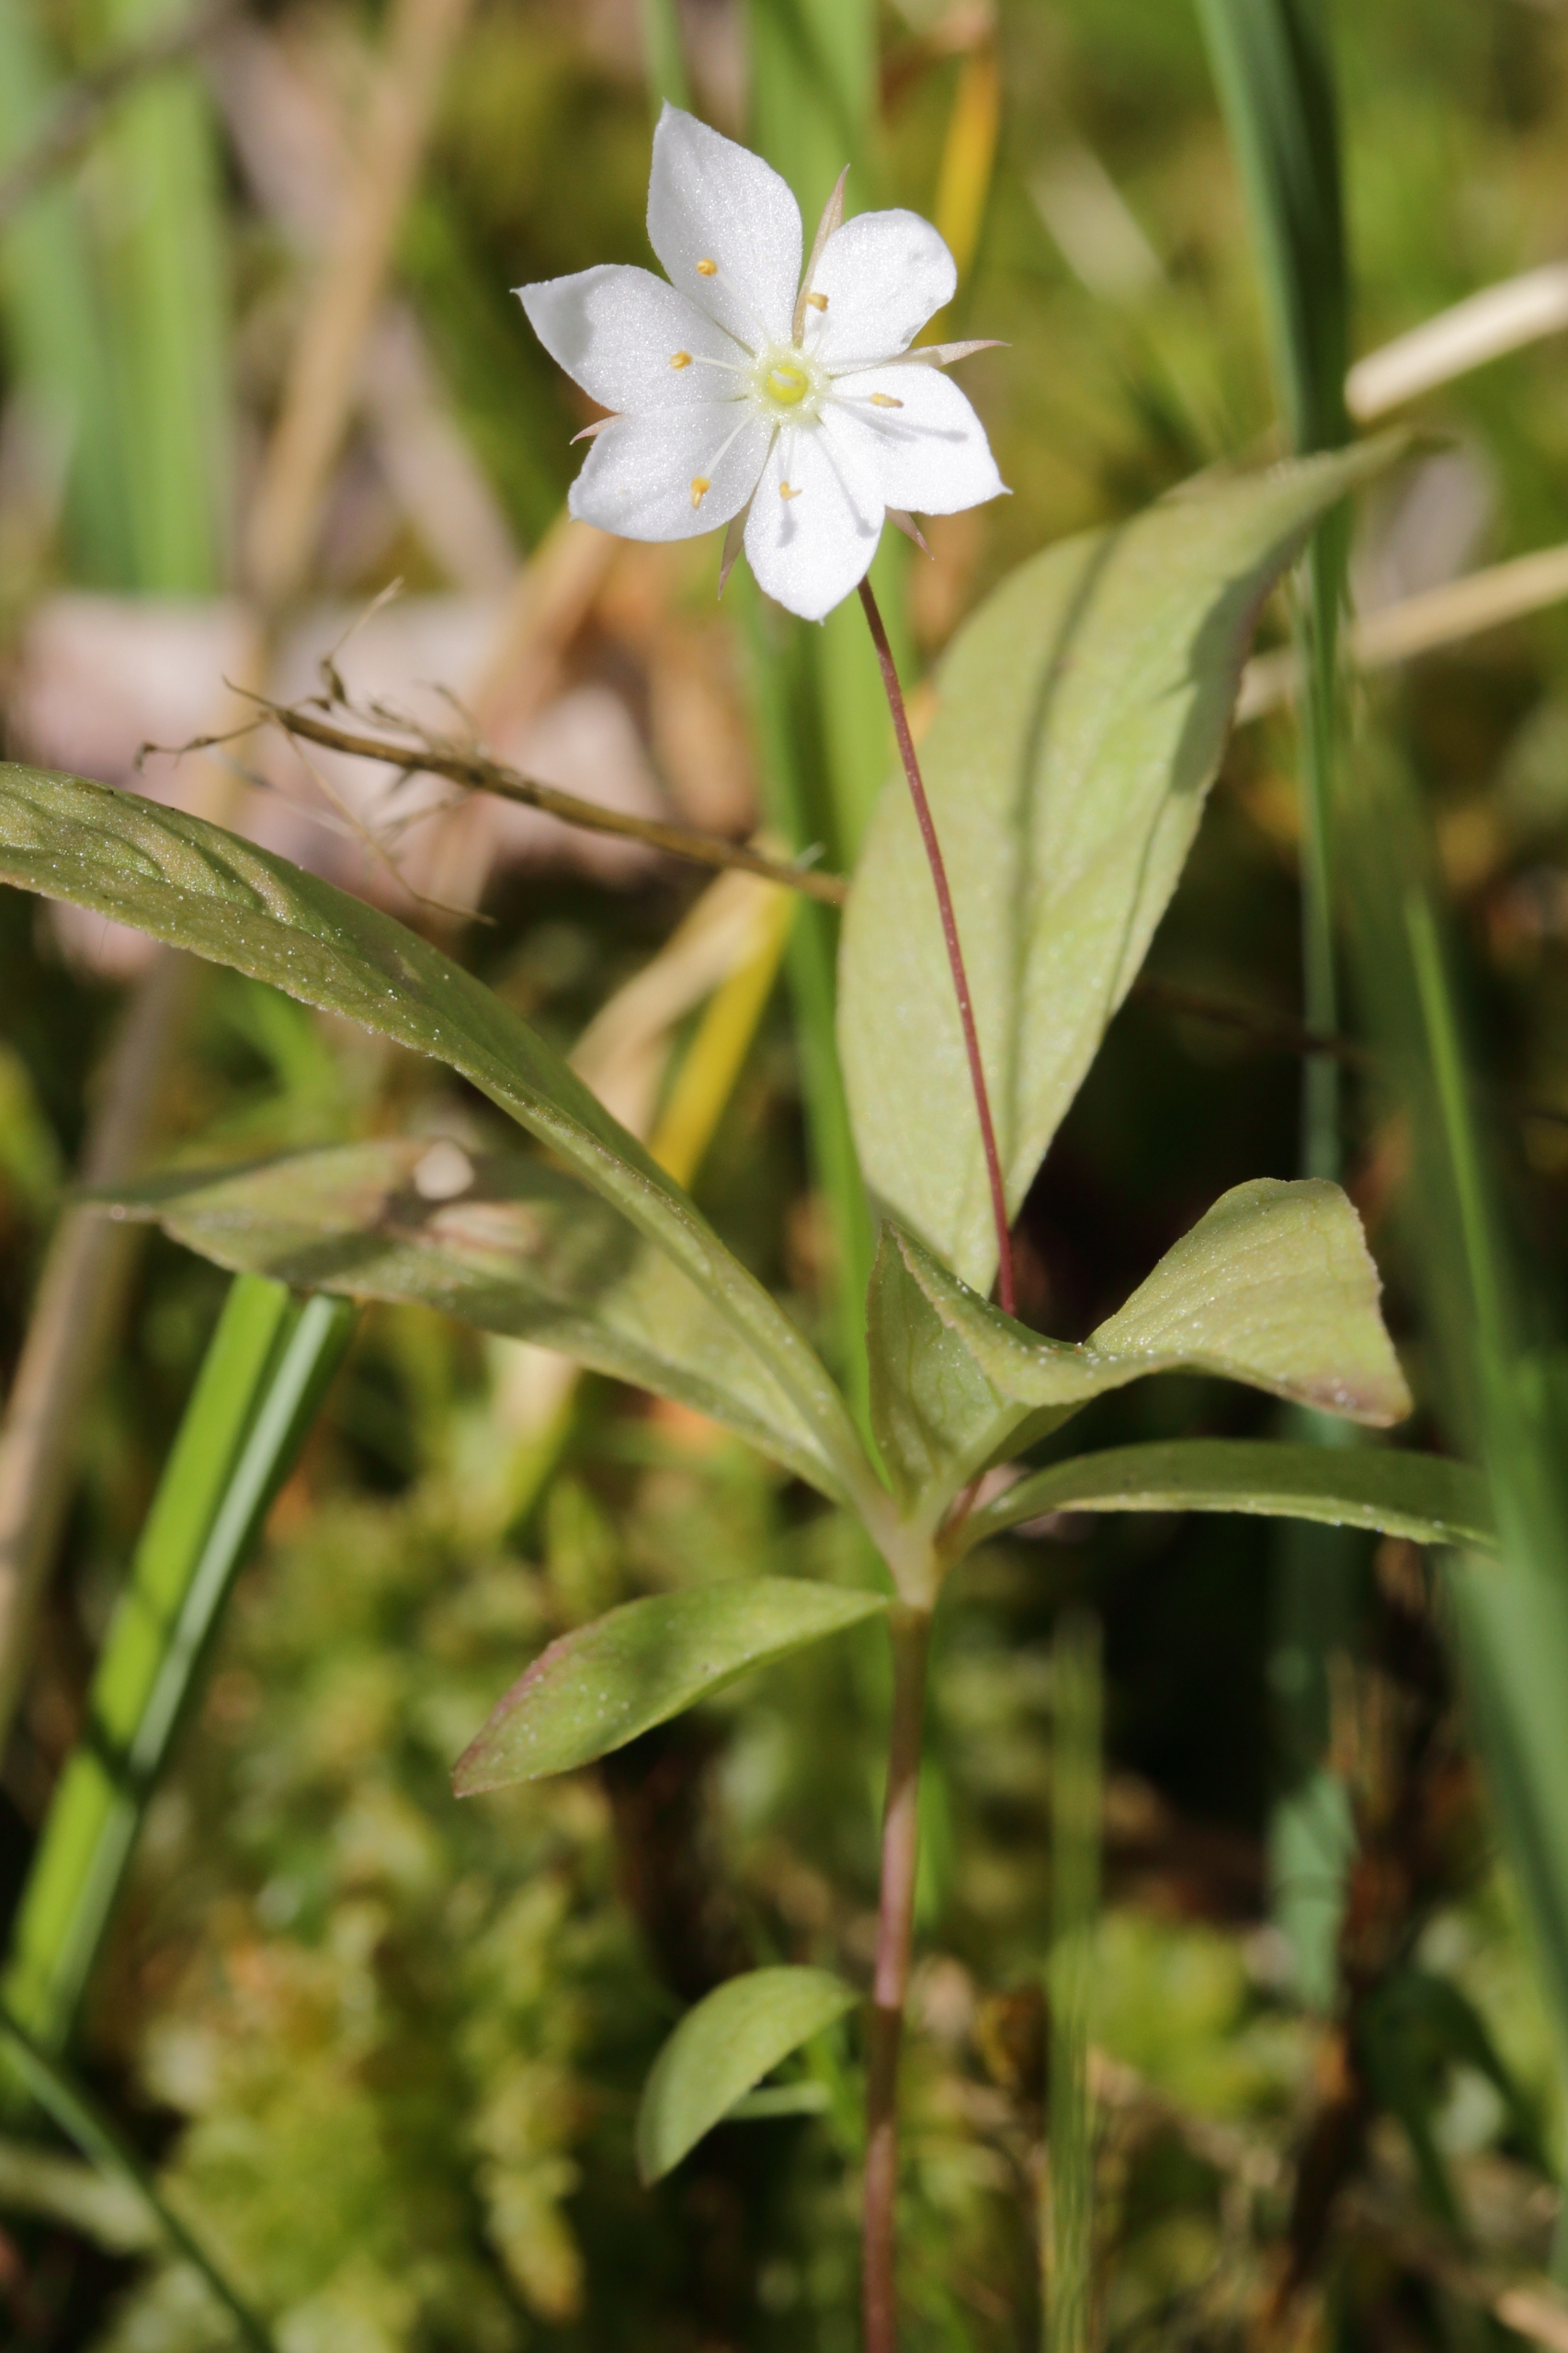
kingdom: Plantae
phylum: Tracheophyta
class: Magnoliopsida
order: Ericales
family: Primulaceae
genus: Lysimachia
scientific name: Lysimachia europaea
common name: Skovstjerne
